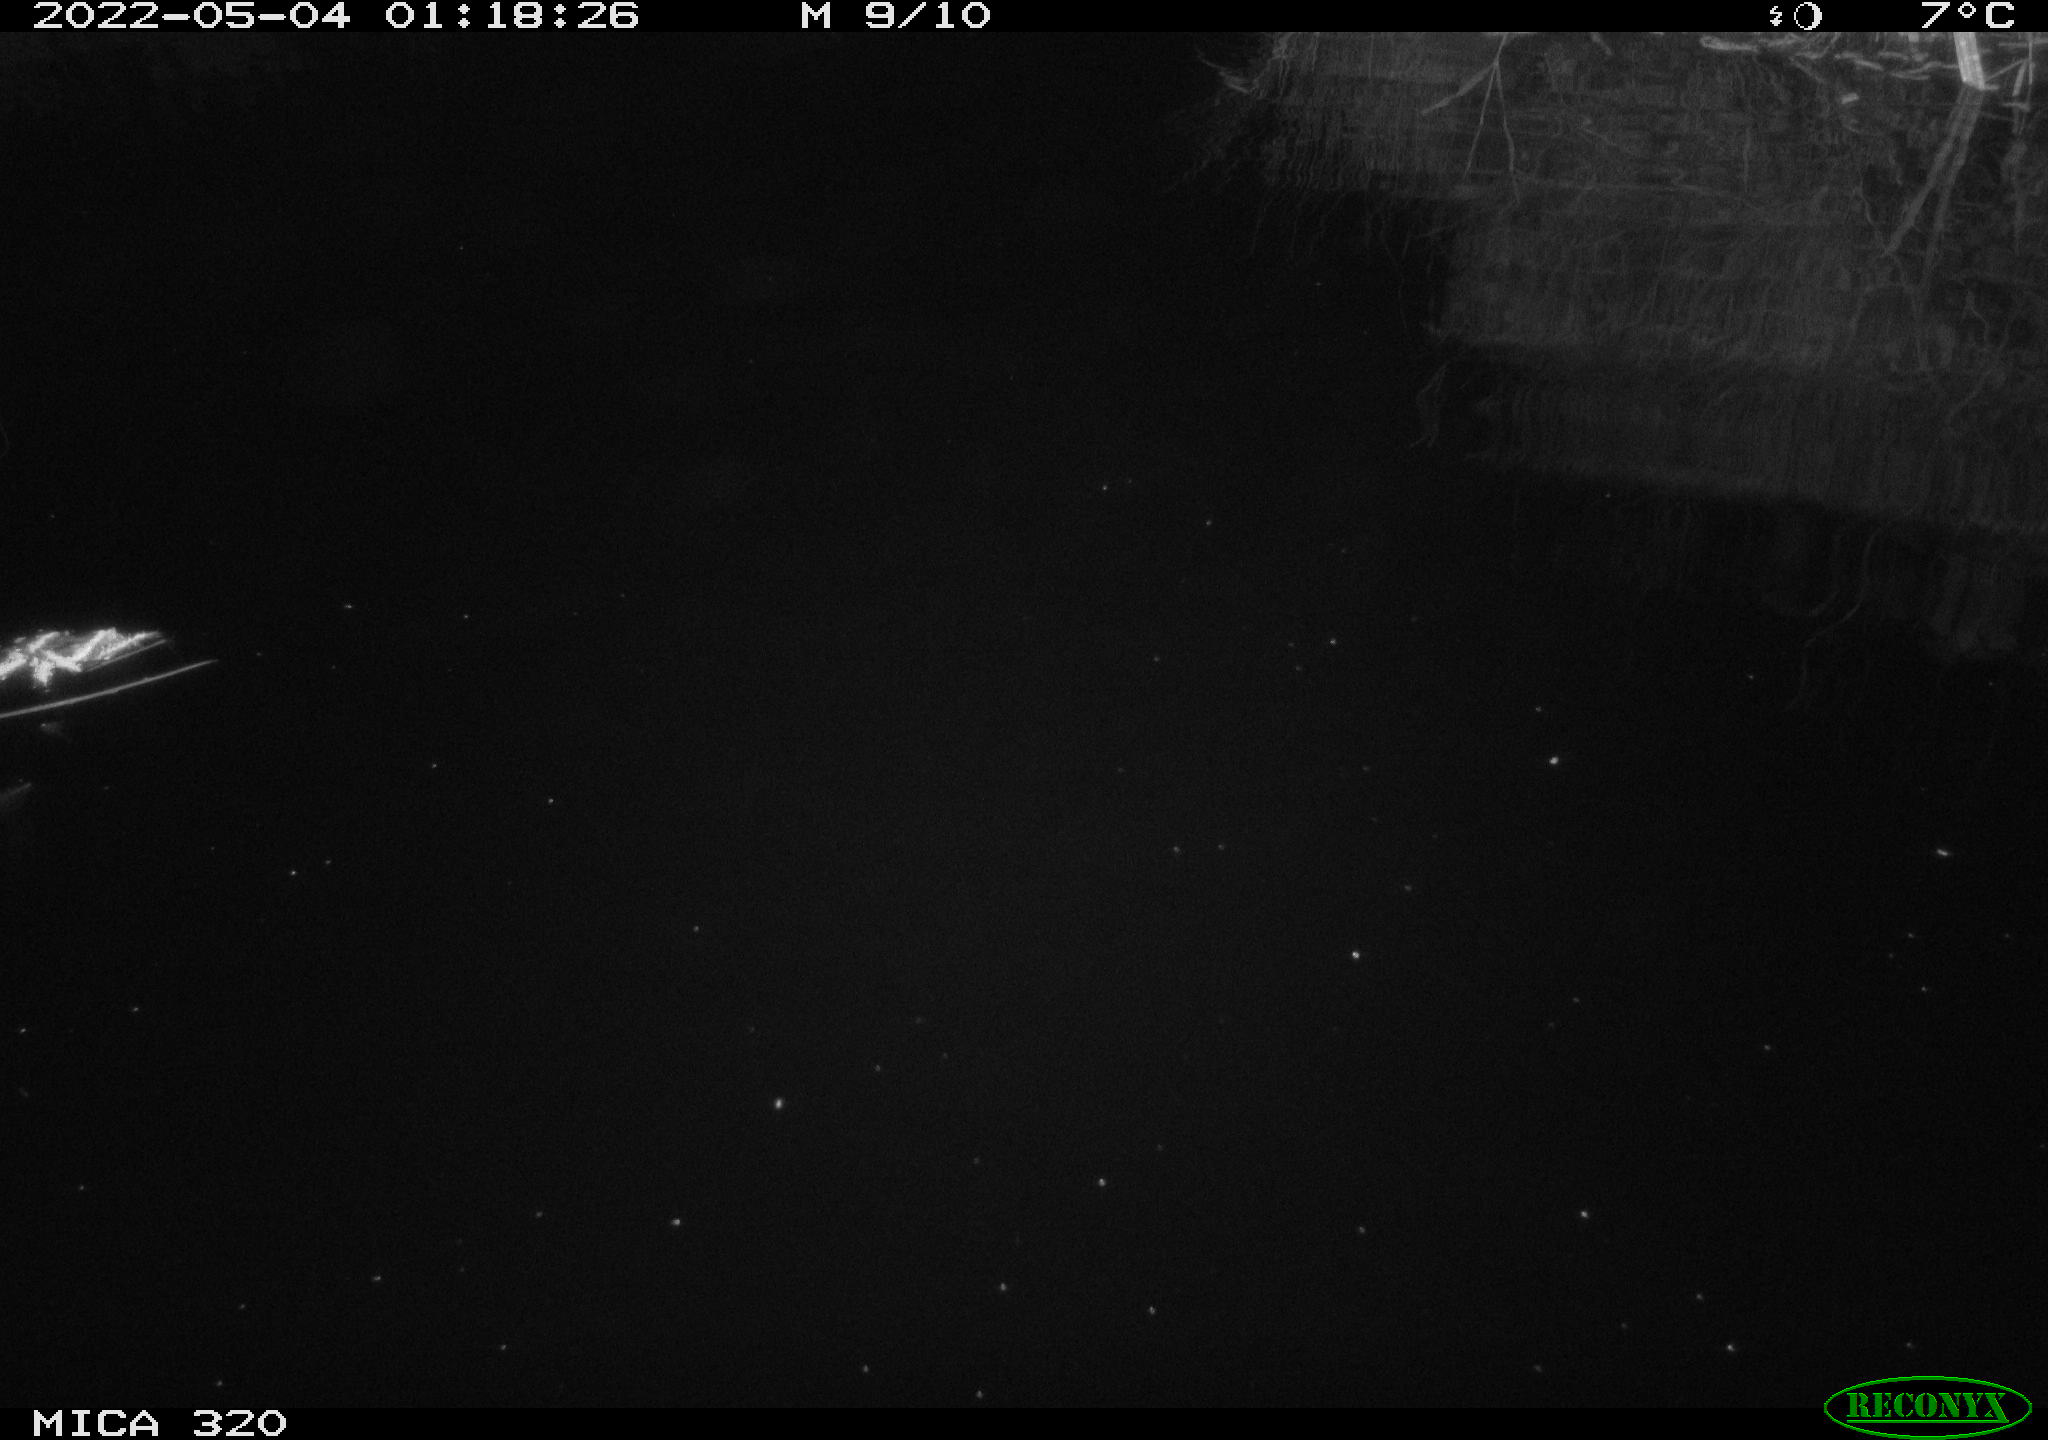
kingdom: Animalia
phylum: Chordata
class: Aves
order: Anseriformes
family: Anatidae
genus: Anas
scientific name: Anas platyrhynchos
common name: Mallard
